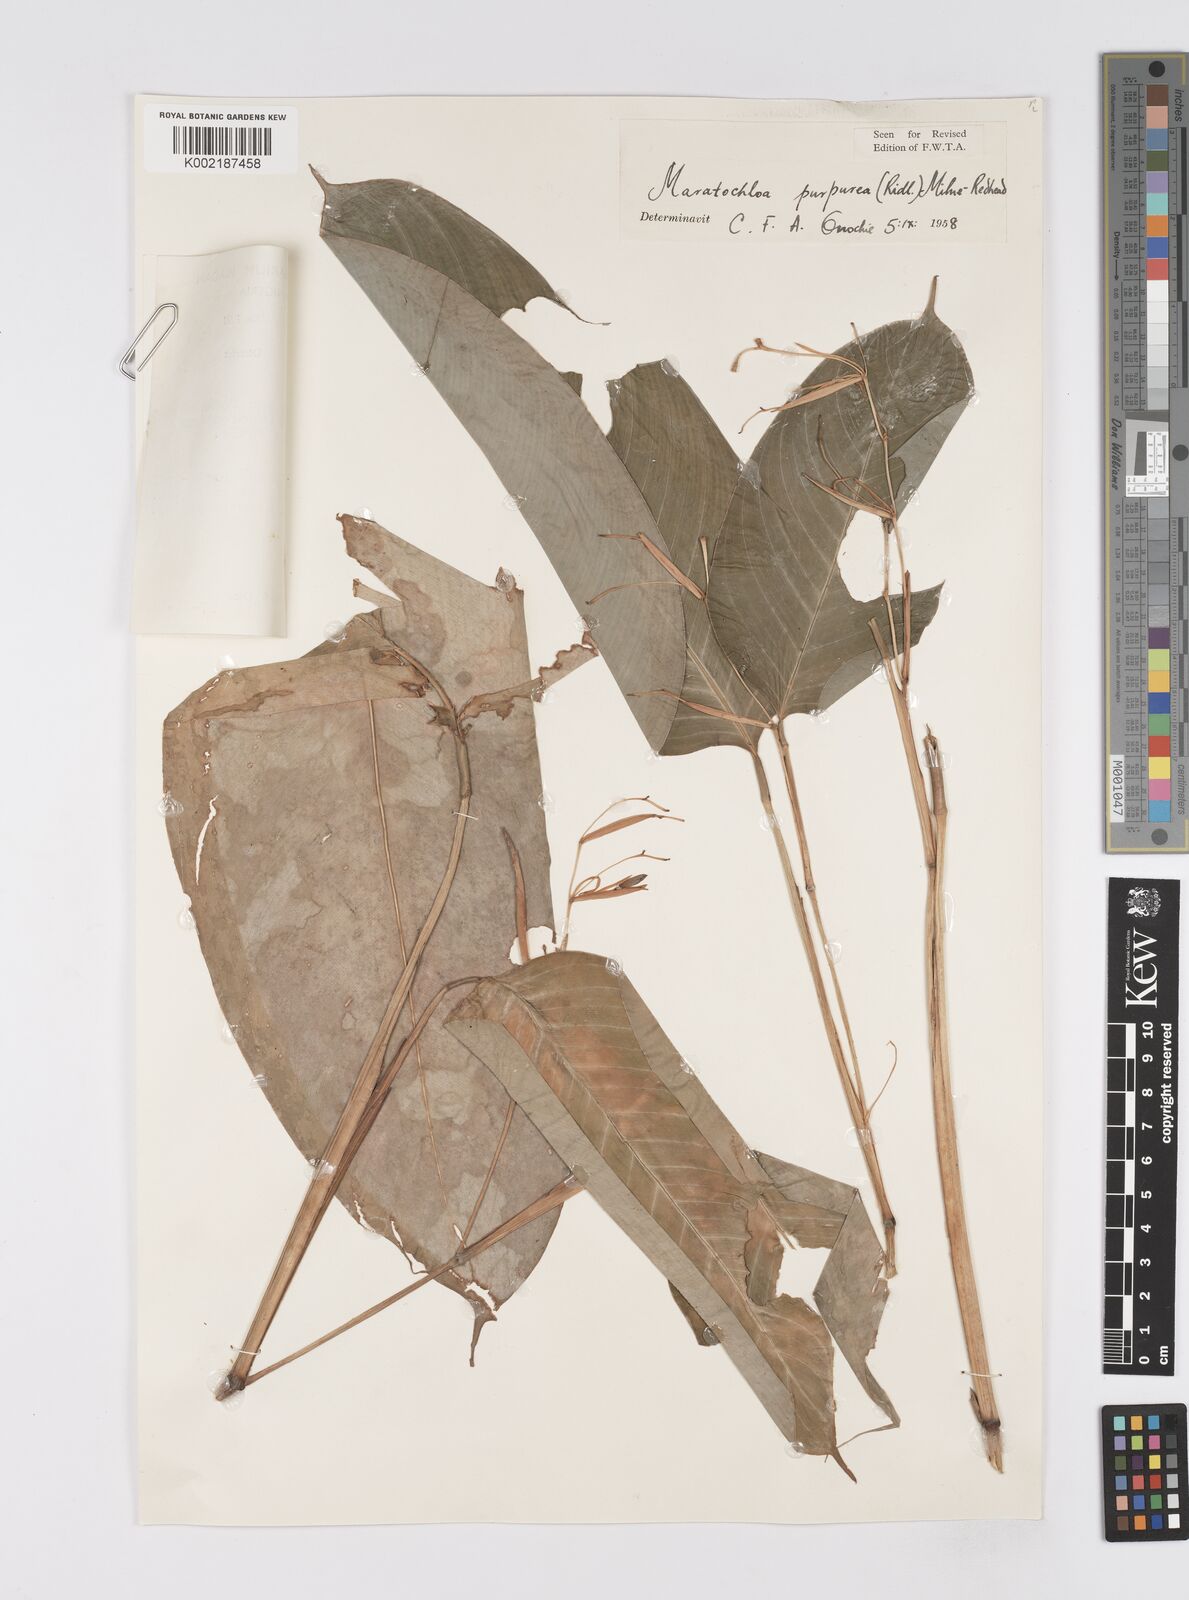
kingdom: Plantae
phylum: Tracheophyta
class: Liliopsida
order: Zingiberales
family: Marantaceae
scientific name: Marantaceae
